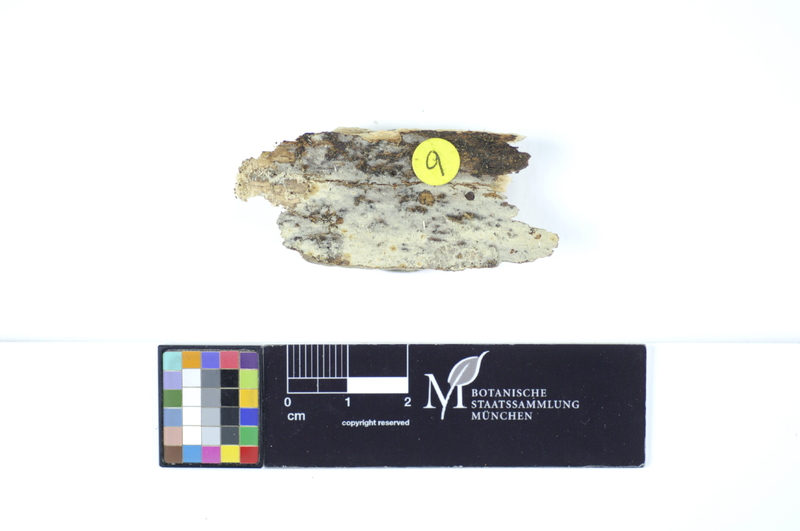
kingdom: Fungi
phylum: Basidiomycota
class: Agaricomycetes
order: Hymenochaetales
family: Rickenellaceae
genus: Peniophorella
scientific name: Peniophorella praetermissa
